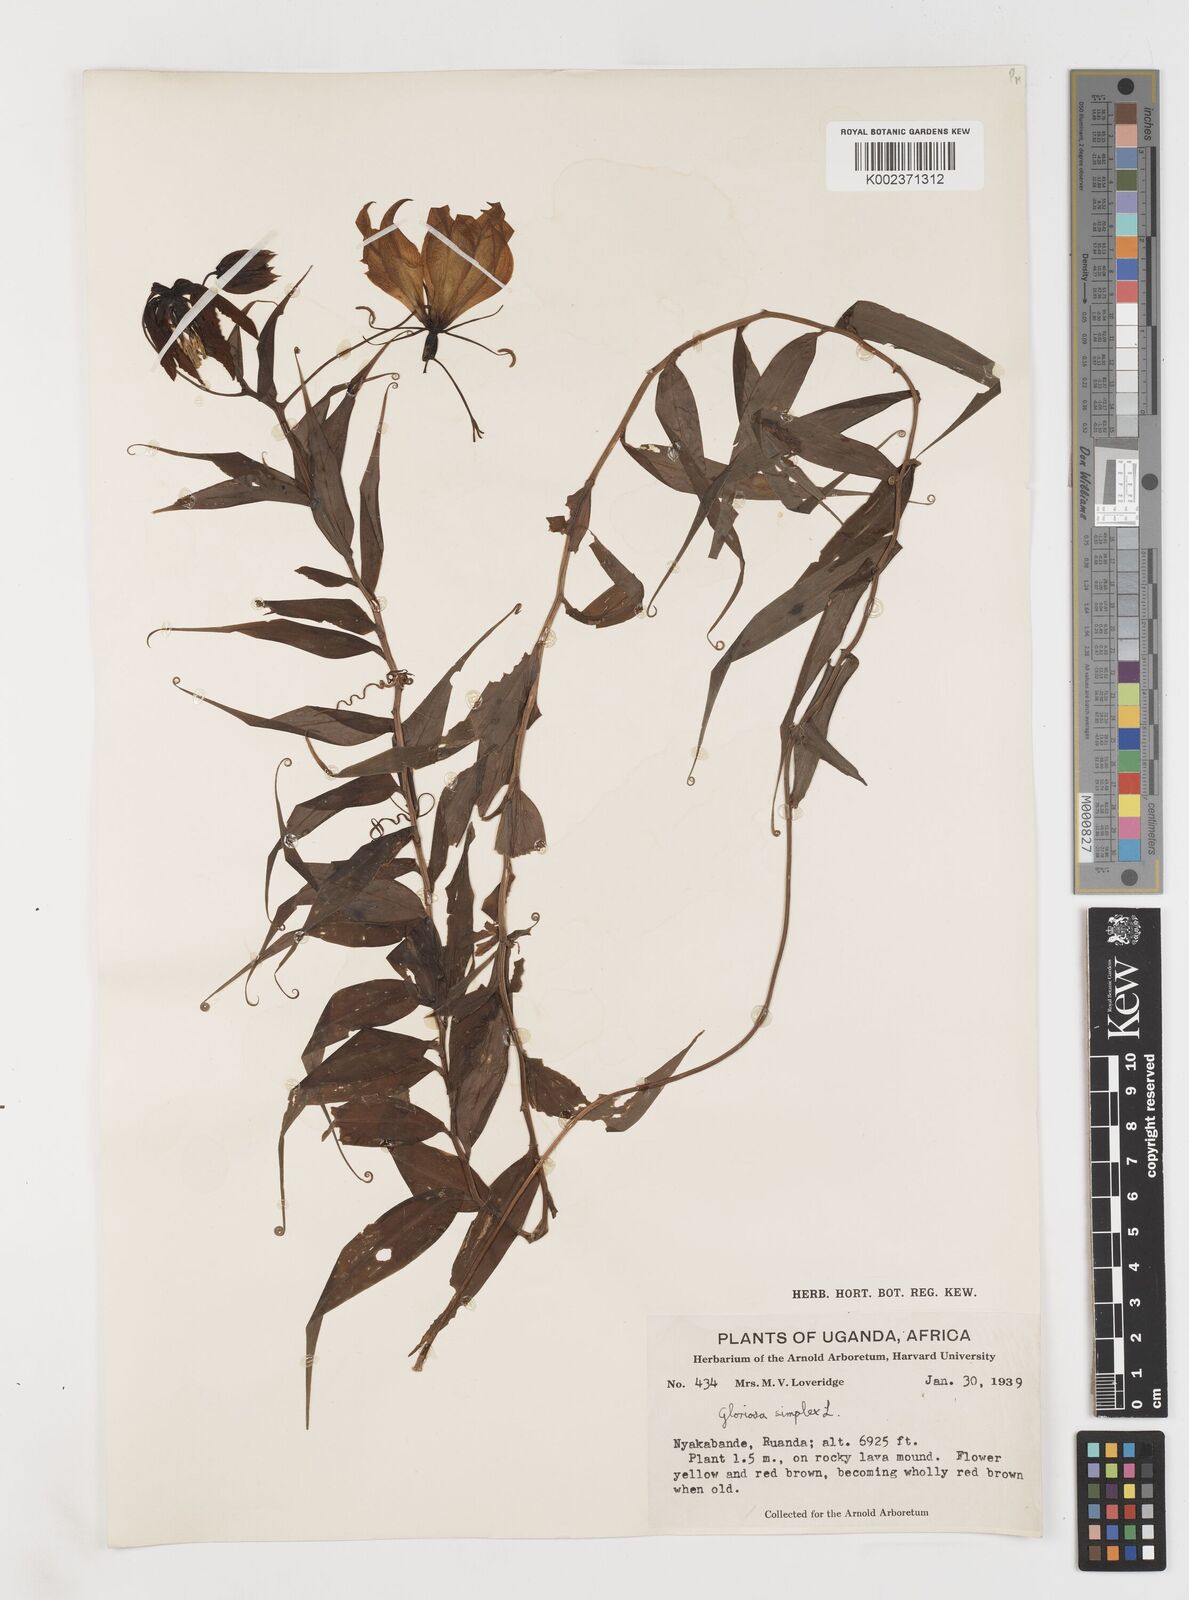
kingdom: Plantae
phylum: Tracheophyta
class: Liliopsida
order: Liliales
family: Colchicaceae
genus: Gloriosa
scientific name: Gloriosa simplex
